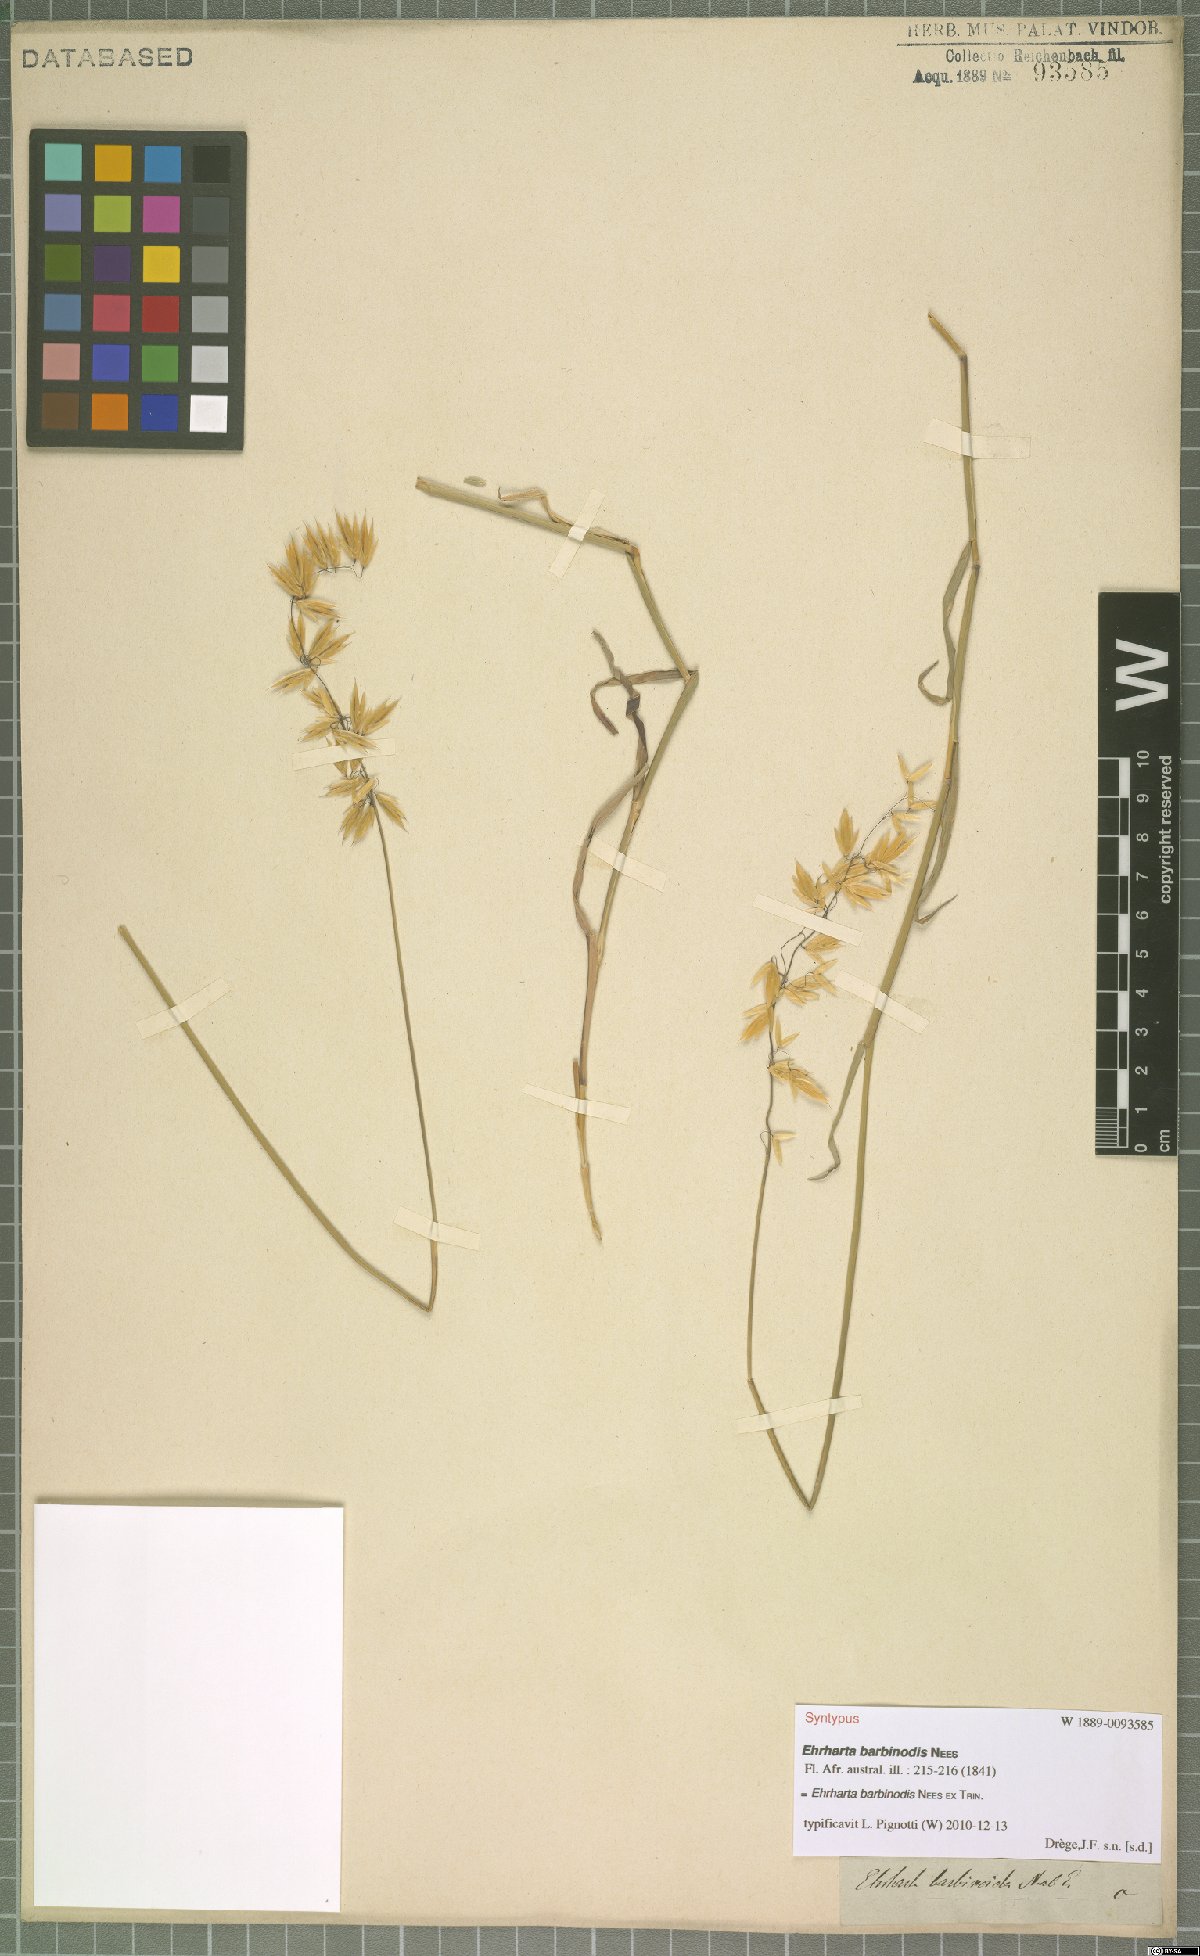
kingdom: Plantae
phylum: Tracheophyta
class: Liliopsida
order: Poales
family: Poaceae
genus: Ehrharta
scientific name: Ehrharta barbinodis
